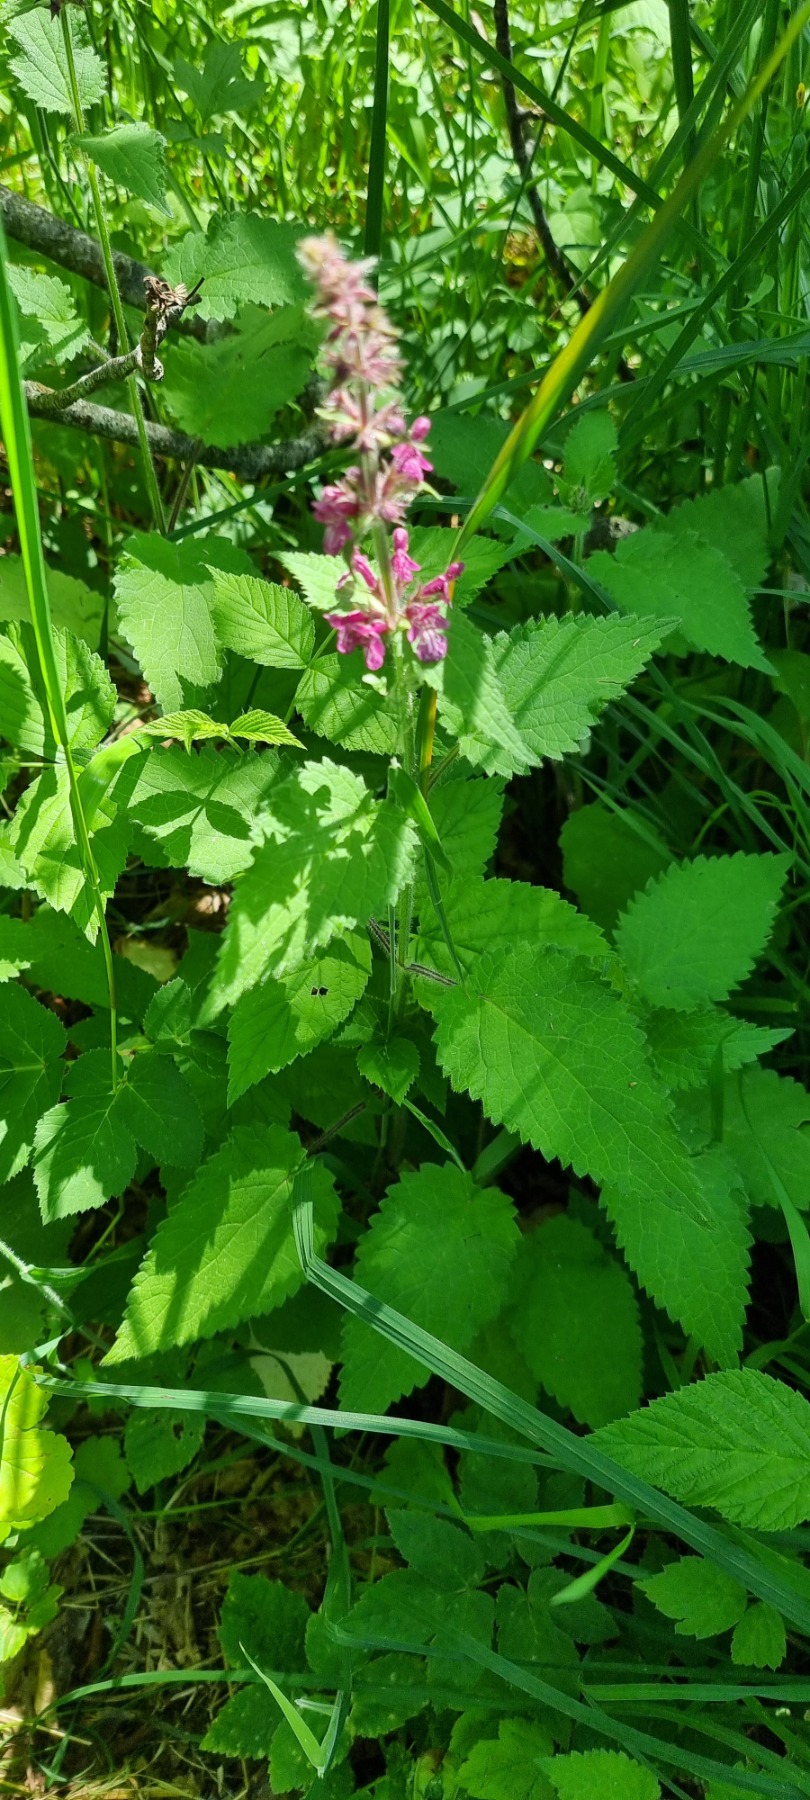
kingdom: Plantae
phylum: Tracheophyta
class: Magnoliopsida
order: Lamiales
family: Lamiaceae
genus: Stachys
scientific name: Stachys sylvatica
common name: Skov-galtetand
